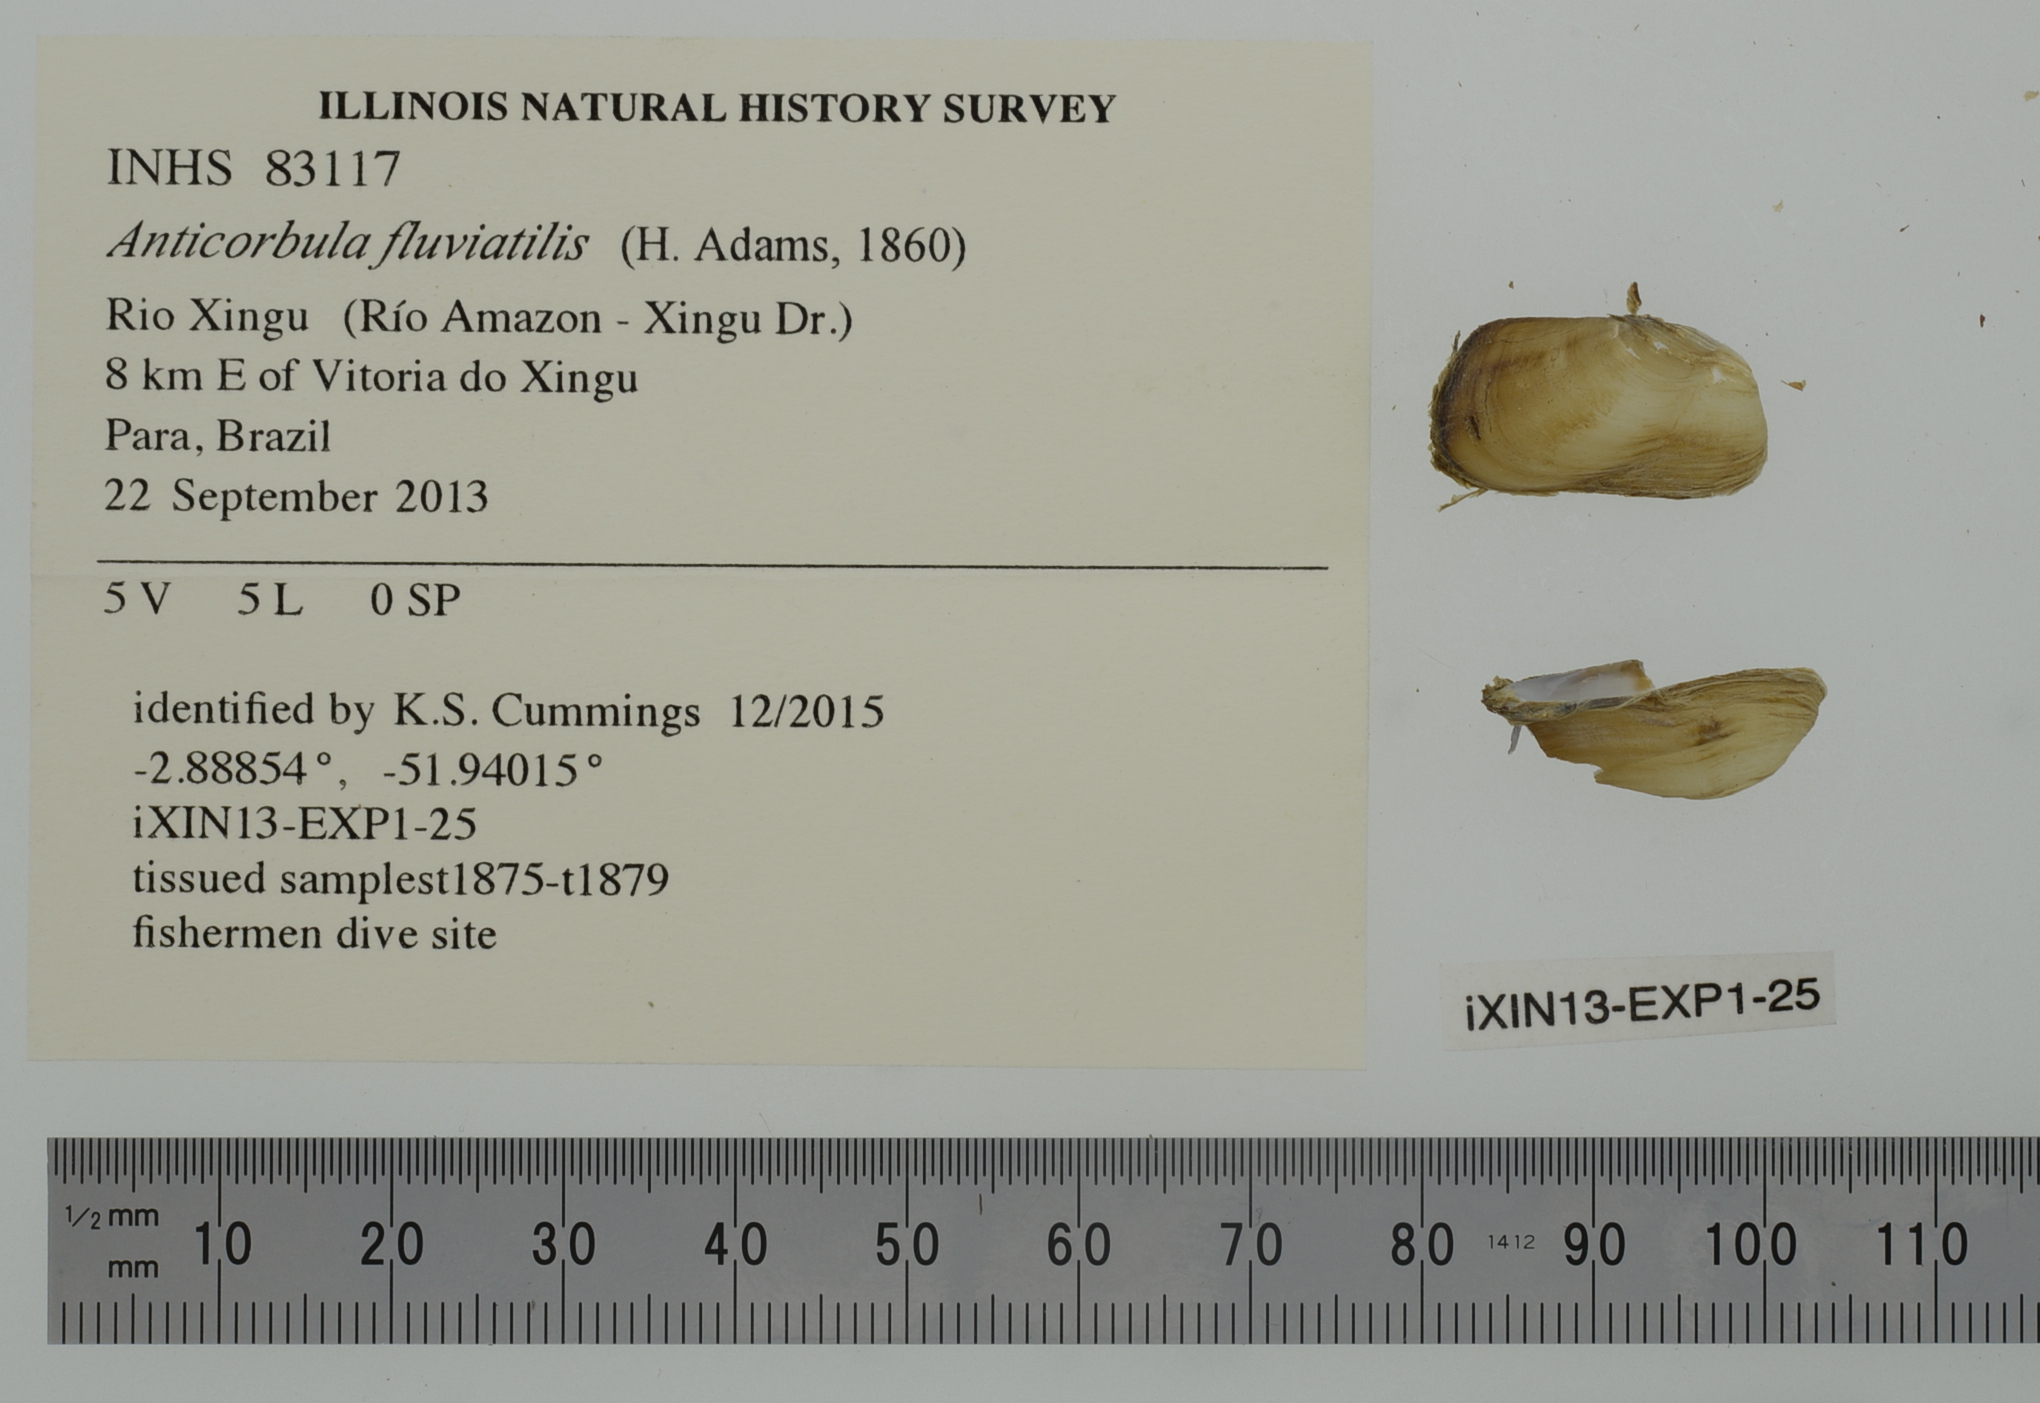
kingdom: Animalia
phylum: Mollusca
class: Bivalvia
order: Myida
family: Corbulidae
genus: Anticorbula
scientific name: Anticorbula fluviatilis
